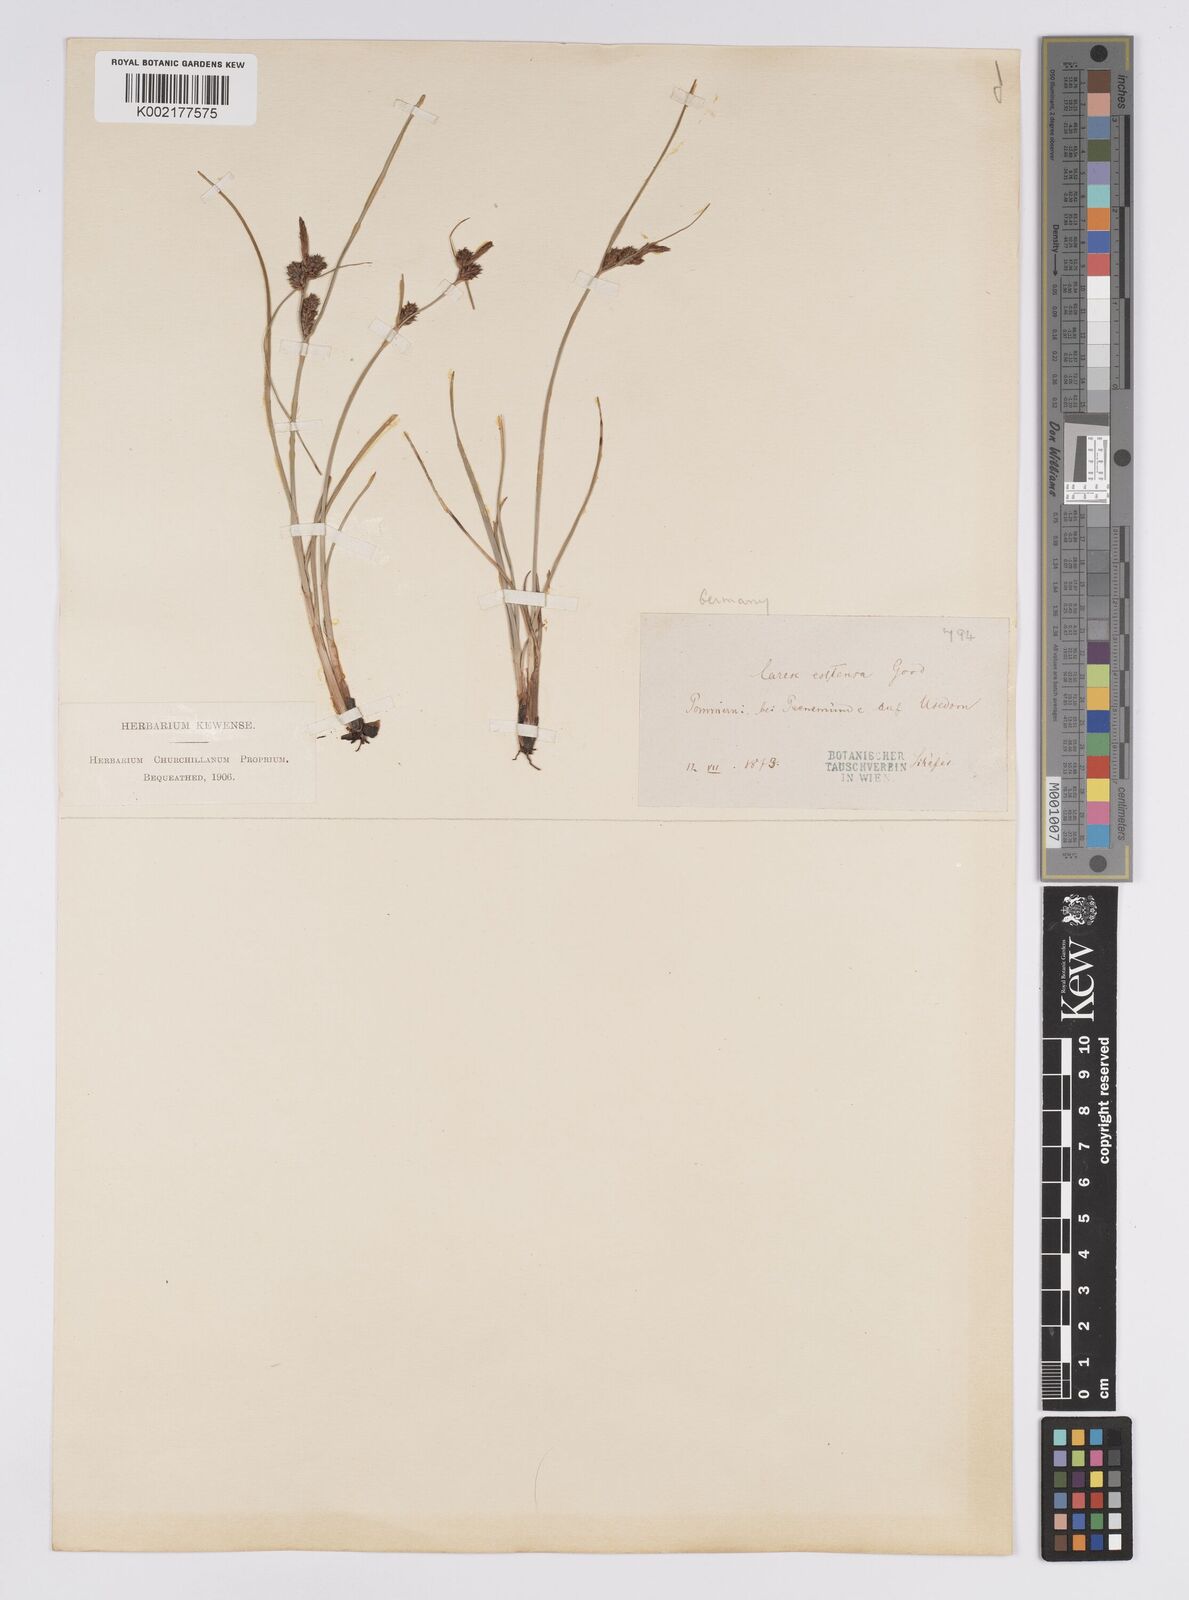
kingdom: Plantae
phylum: Tracheophyta
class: Liliopsida
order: Poales
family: Cyperaceae
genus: Carex
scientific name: Carex extensa
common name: Long-bracted sedge
